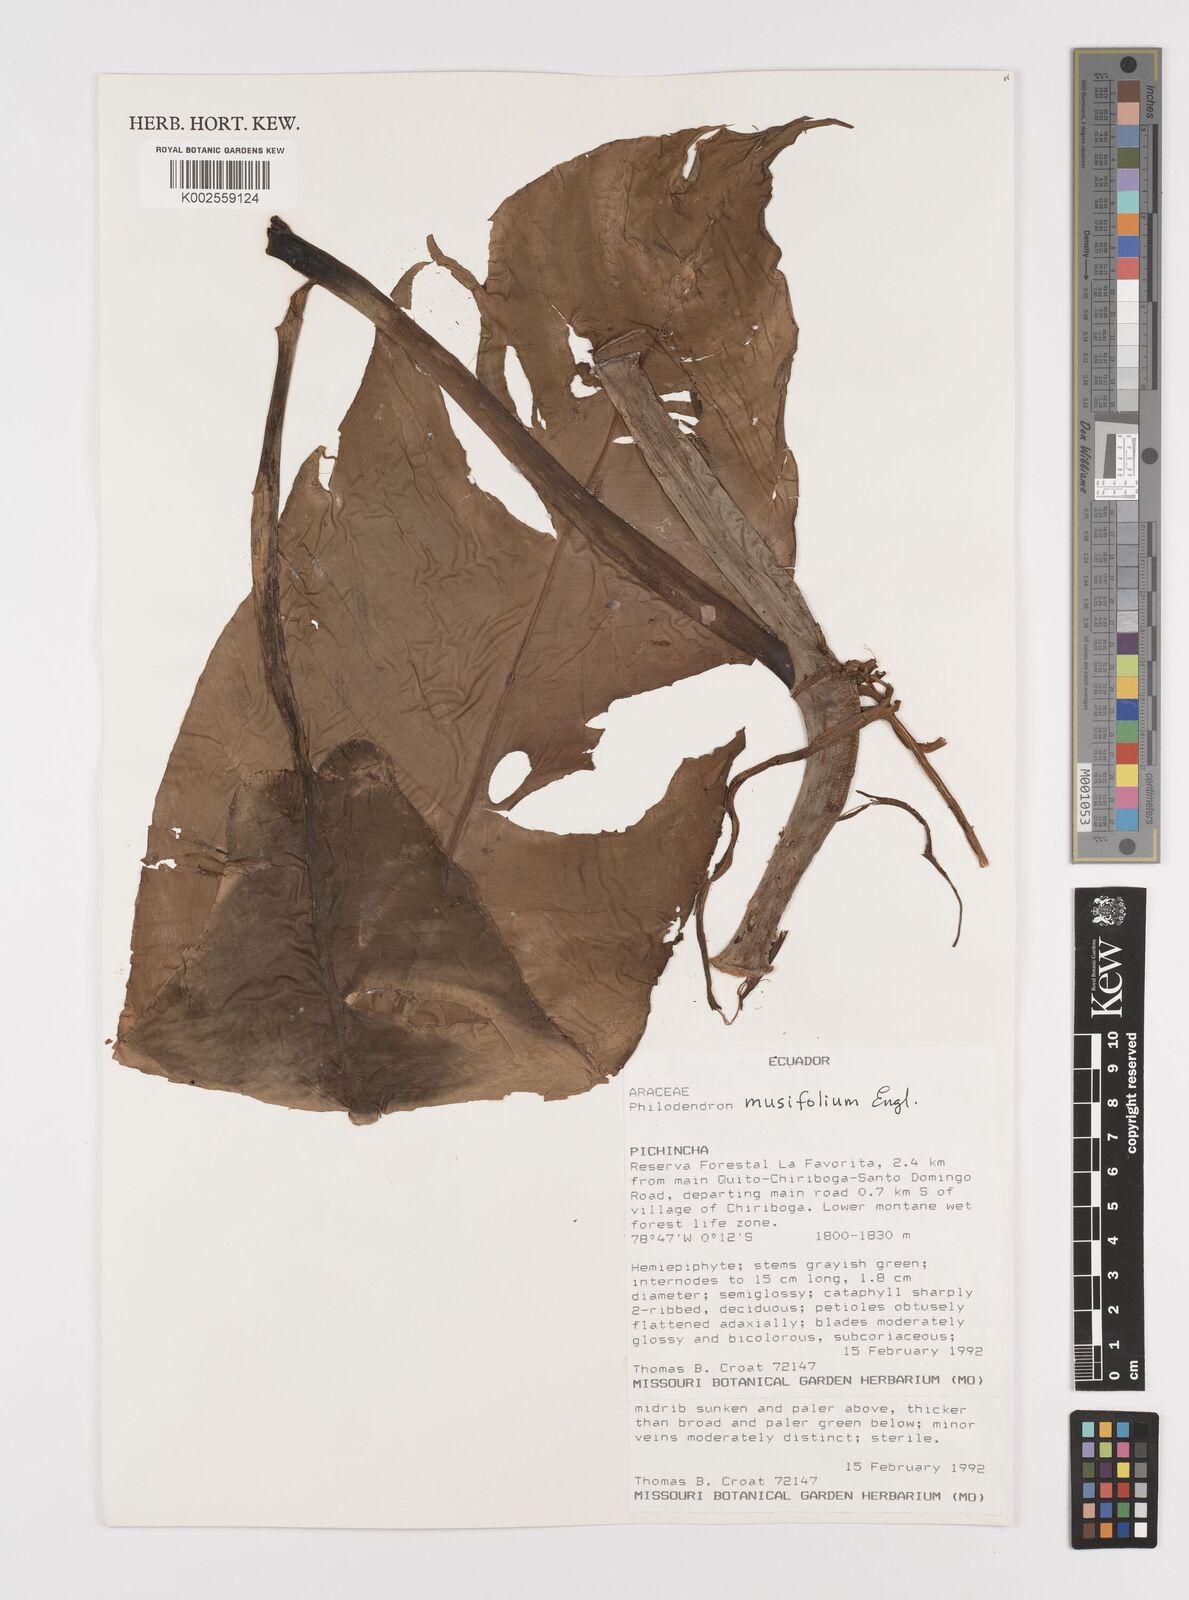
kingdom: Plantae
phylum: Tracheophyta
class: Liliopsida
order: Alismatales
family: Araceae
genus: Philodendron
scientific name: Philodendron musifolium
